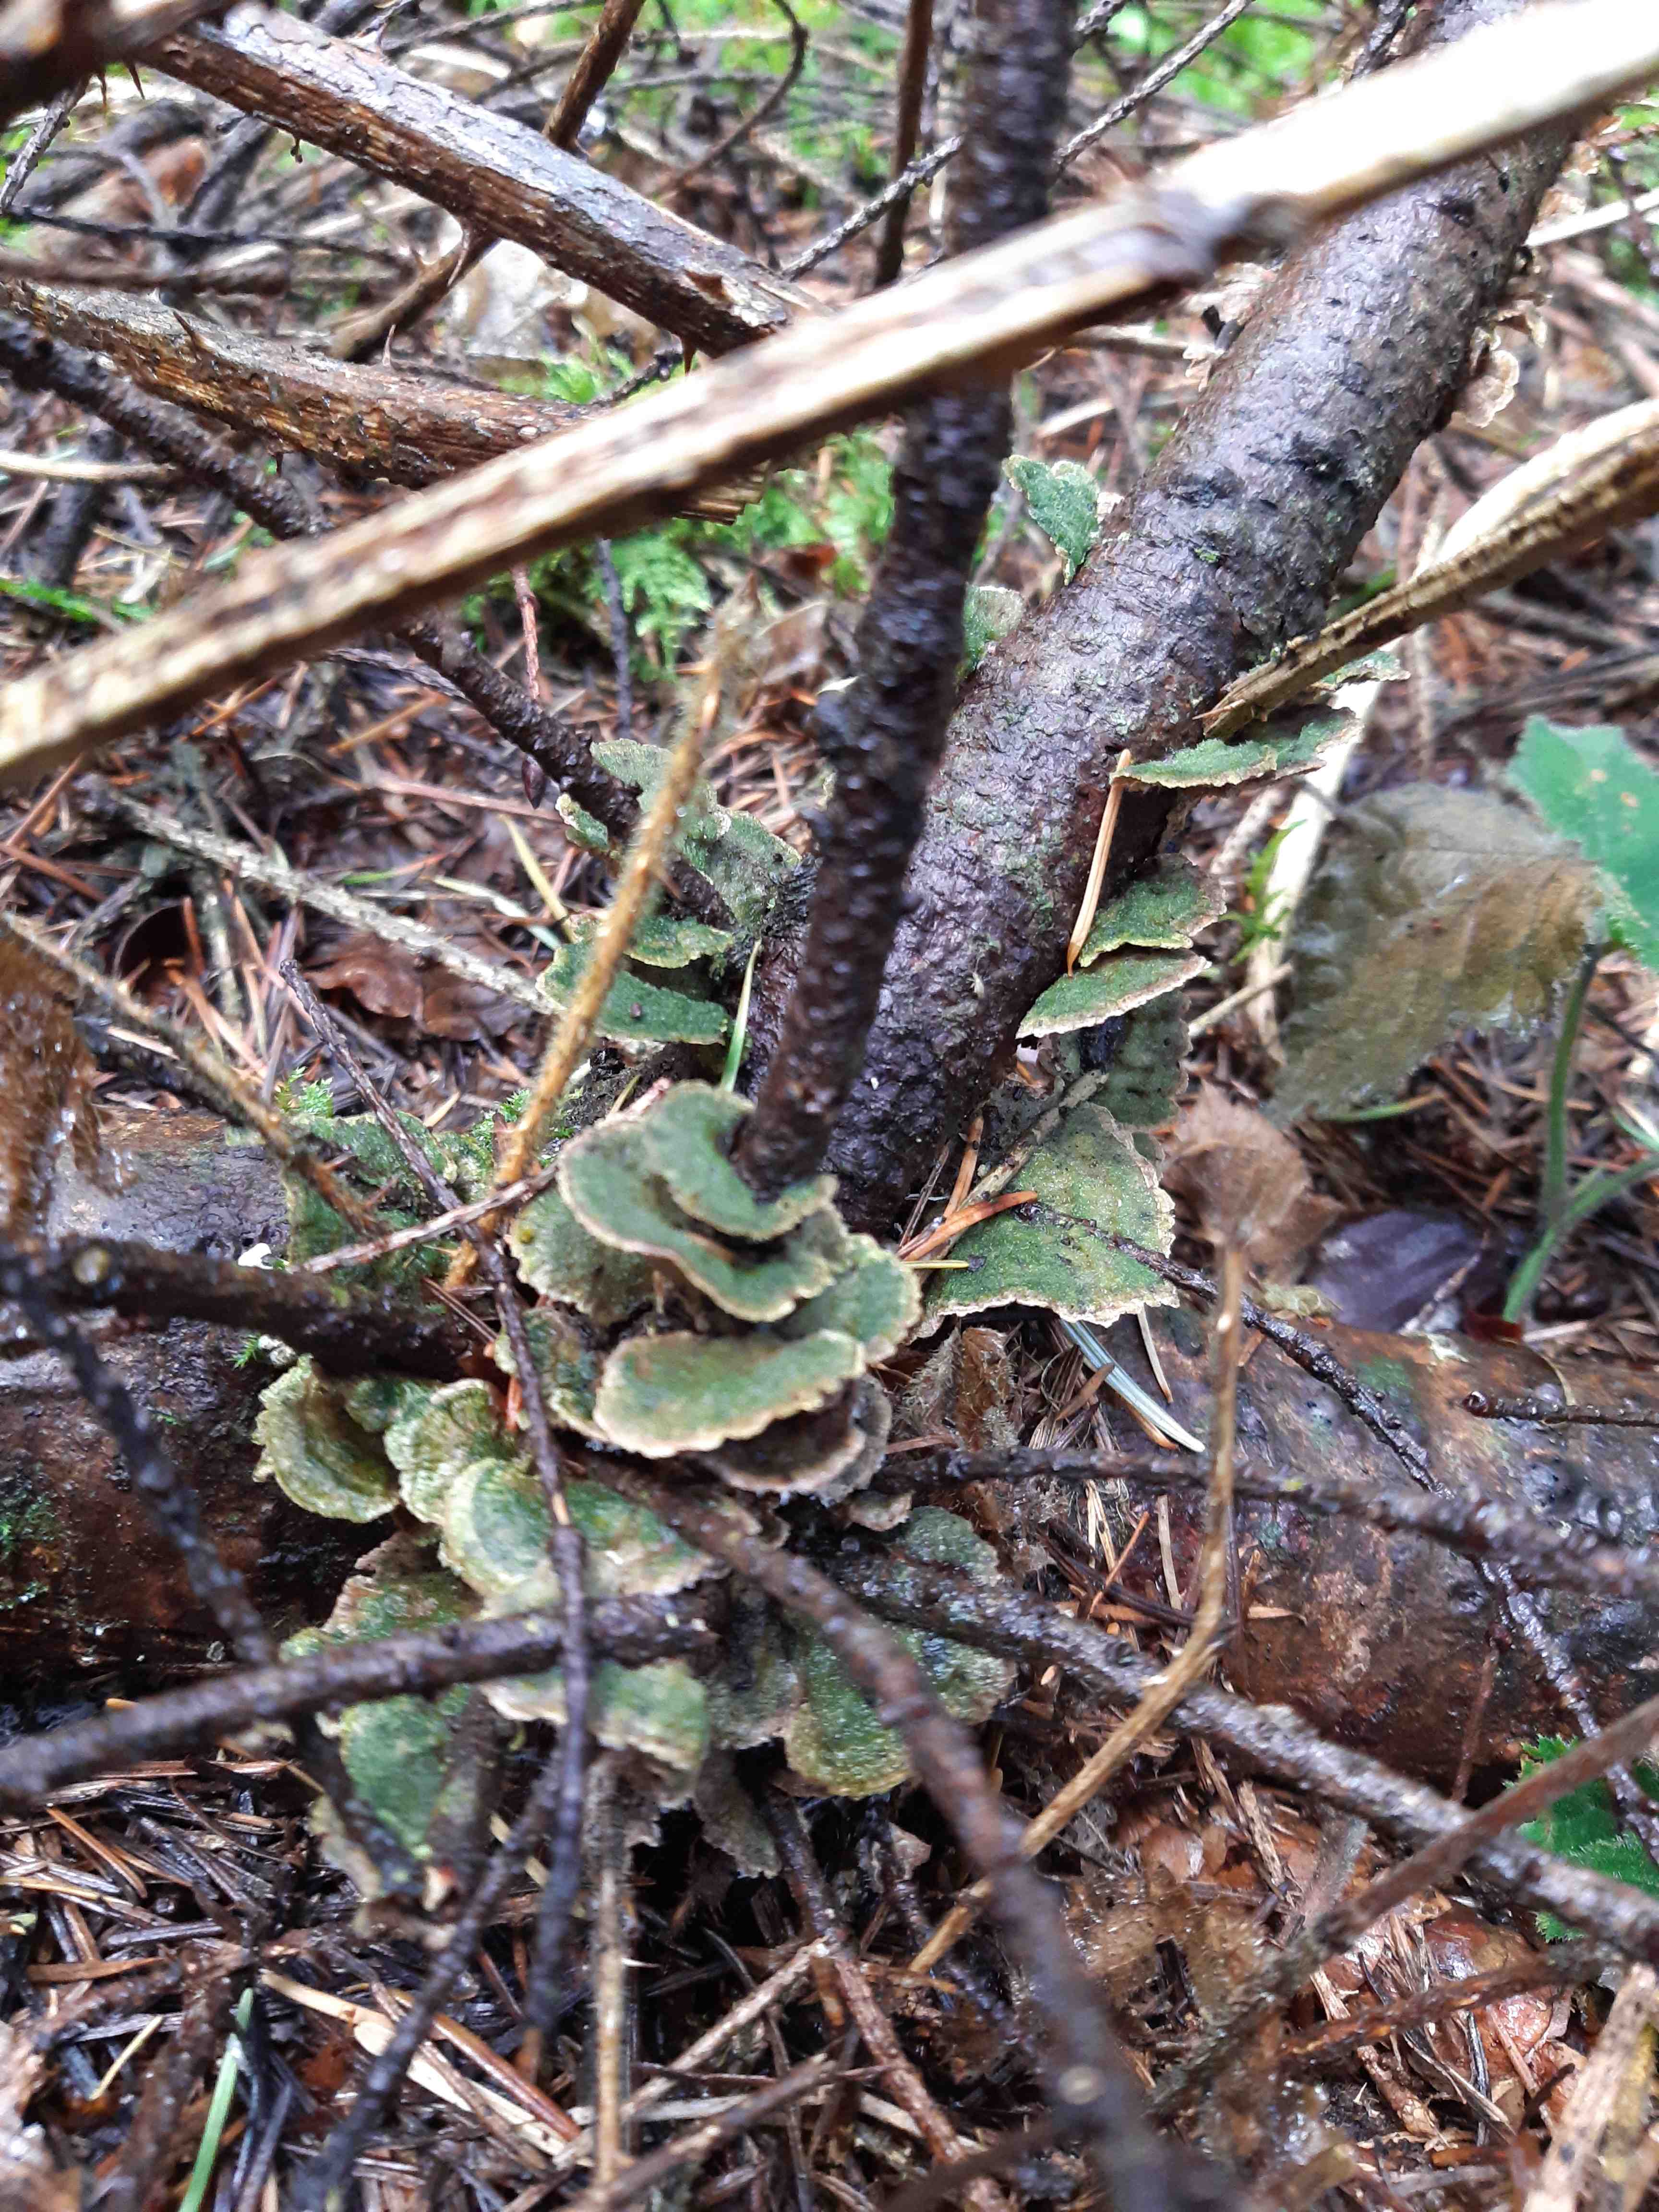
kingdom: Fungi
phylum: Basidiomycota
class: Agaricomycetes
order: Polyporales
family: Polyporaceae
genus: Trametes
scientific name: Trametes
